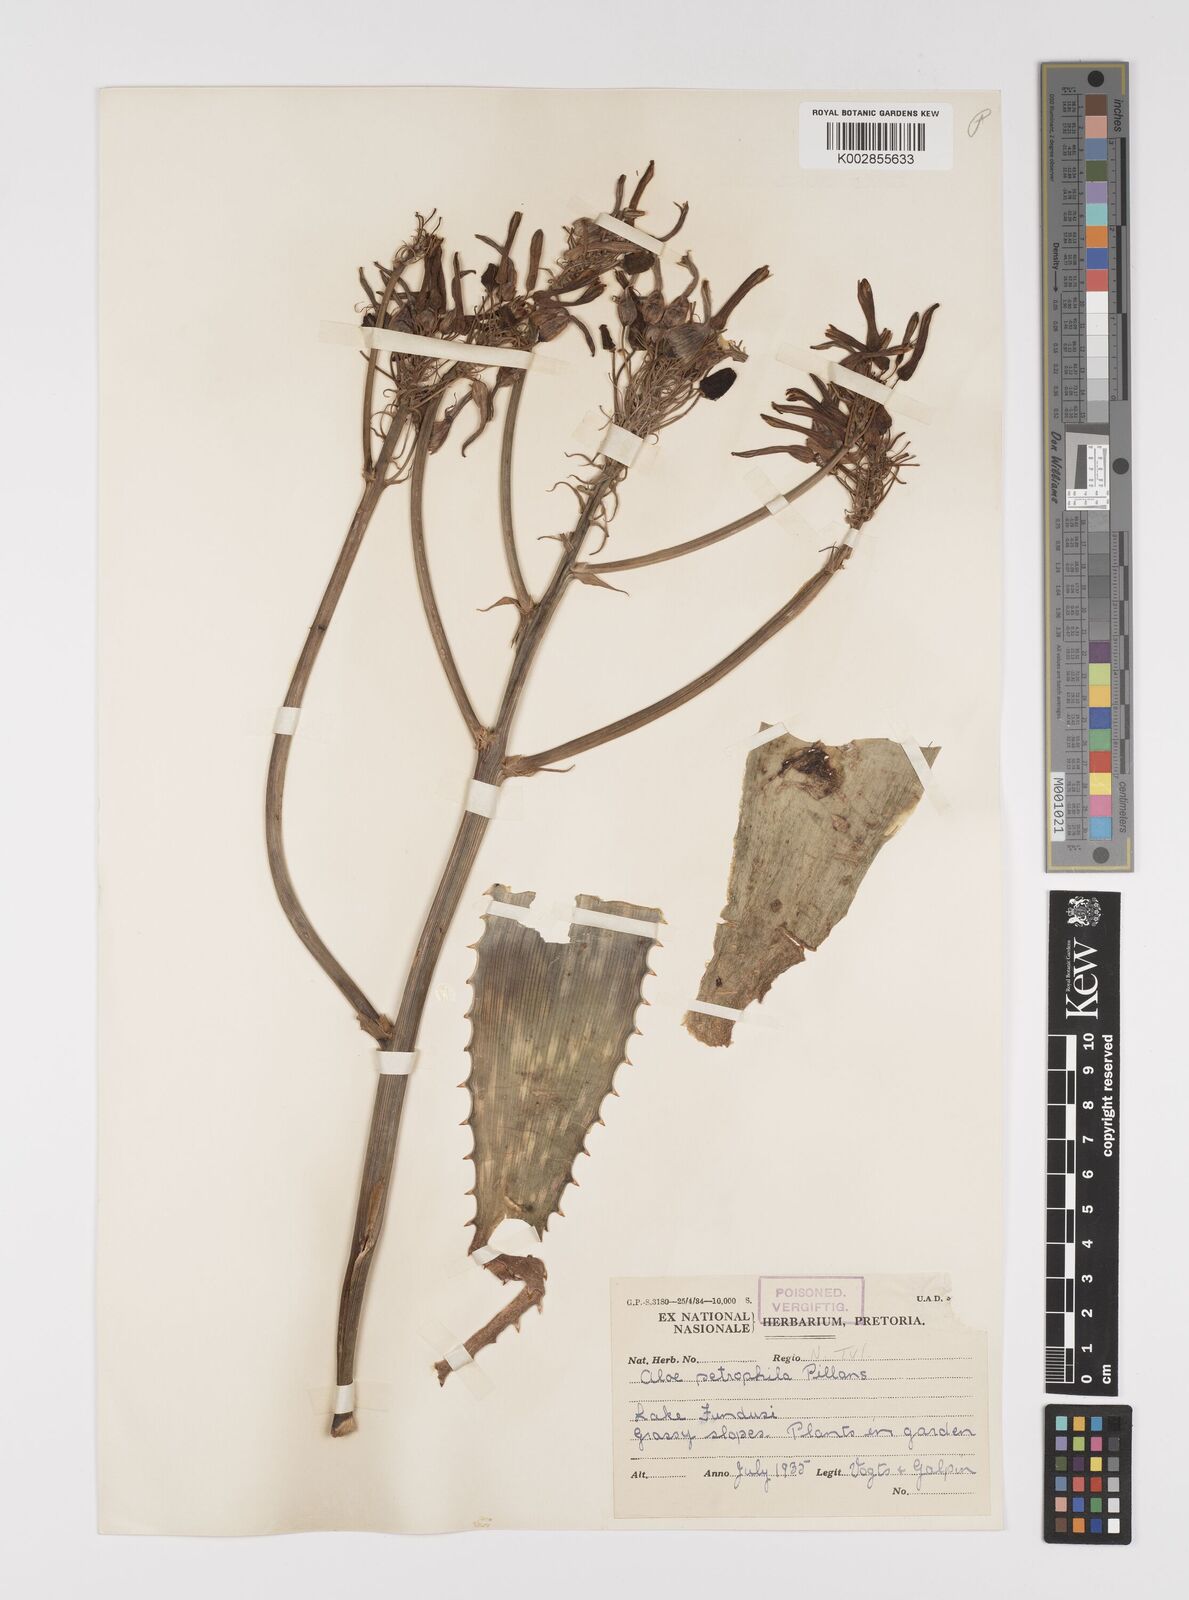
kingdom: Plantae
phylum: Tracheophyta
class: Liliopsida
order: Asparagales
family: Asphodelaceae
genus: Aloe
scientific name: Aloe petrophila
